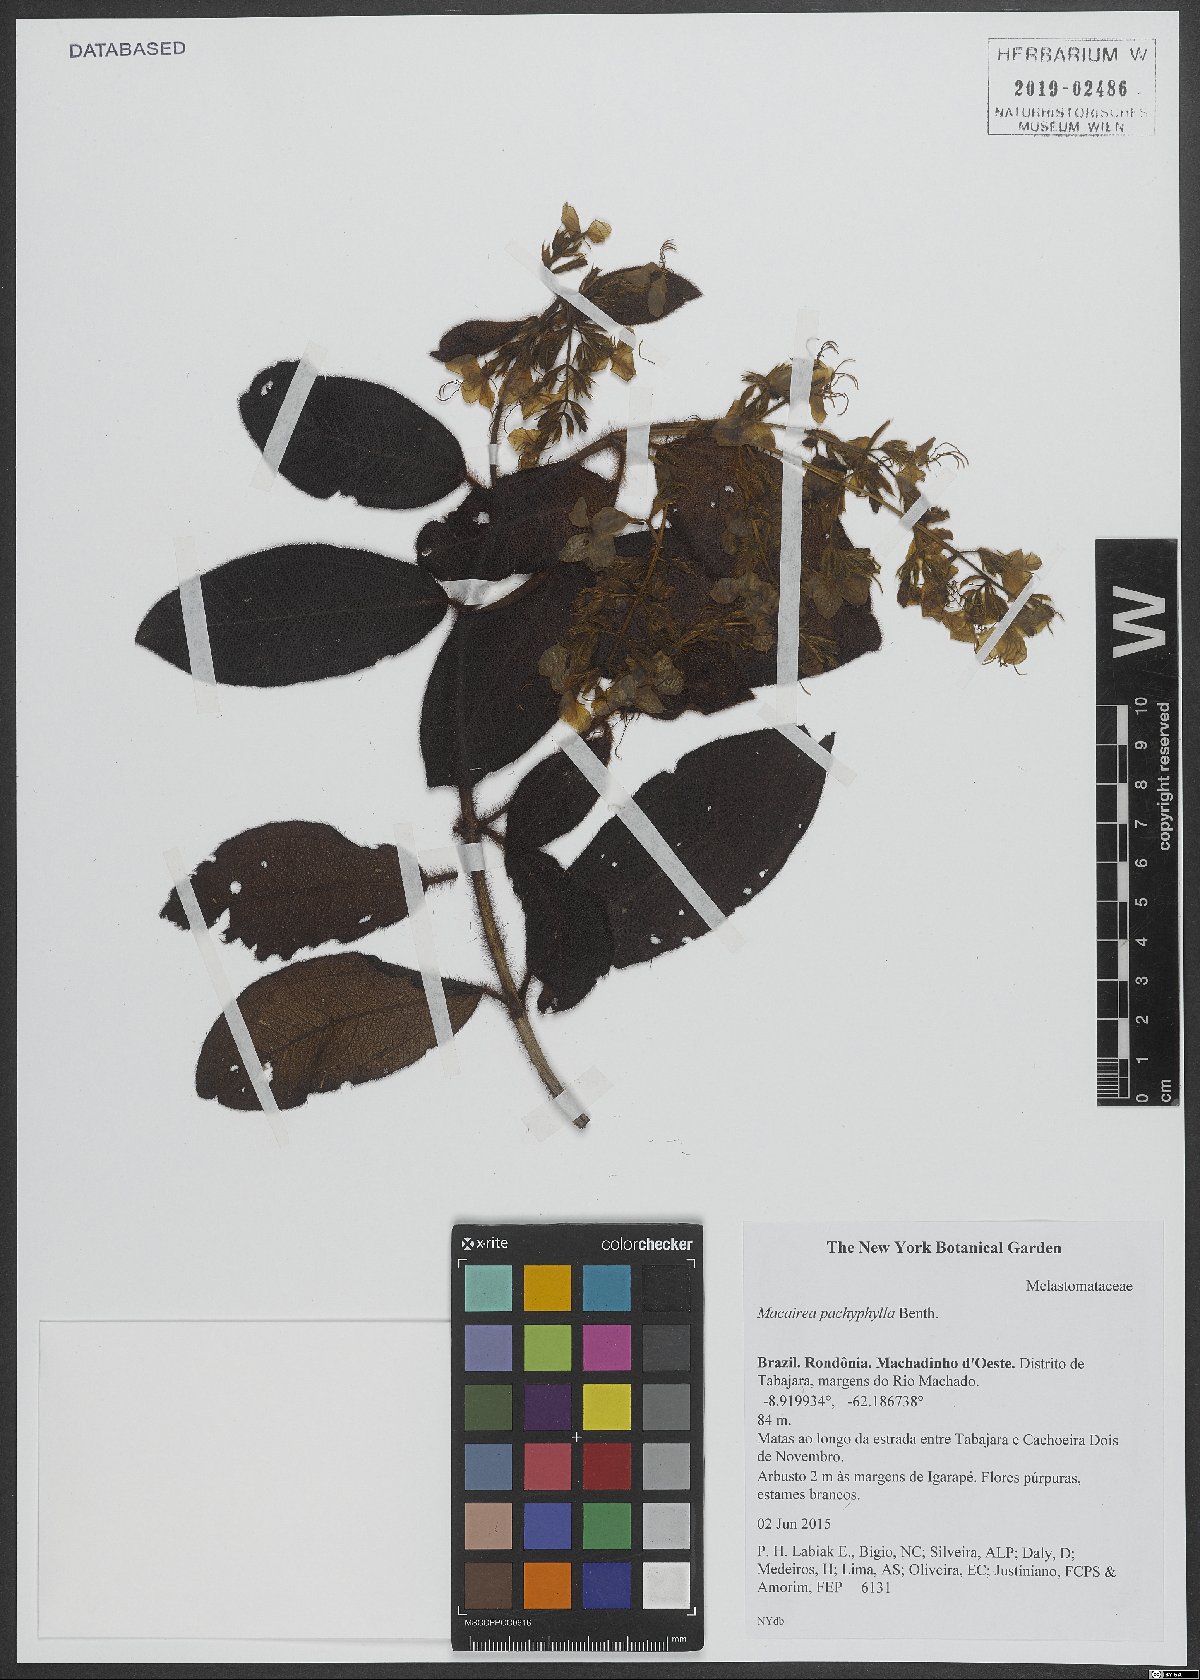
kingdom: Plantae
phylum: Tracheophyta
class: Magnoliopsida
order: Myrtales
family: Melastomataceae
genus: Macairea
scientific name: Macairea pachyphylla
